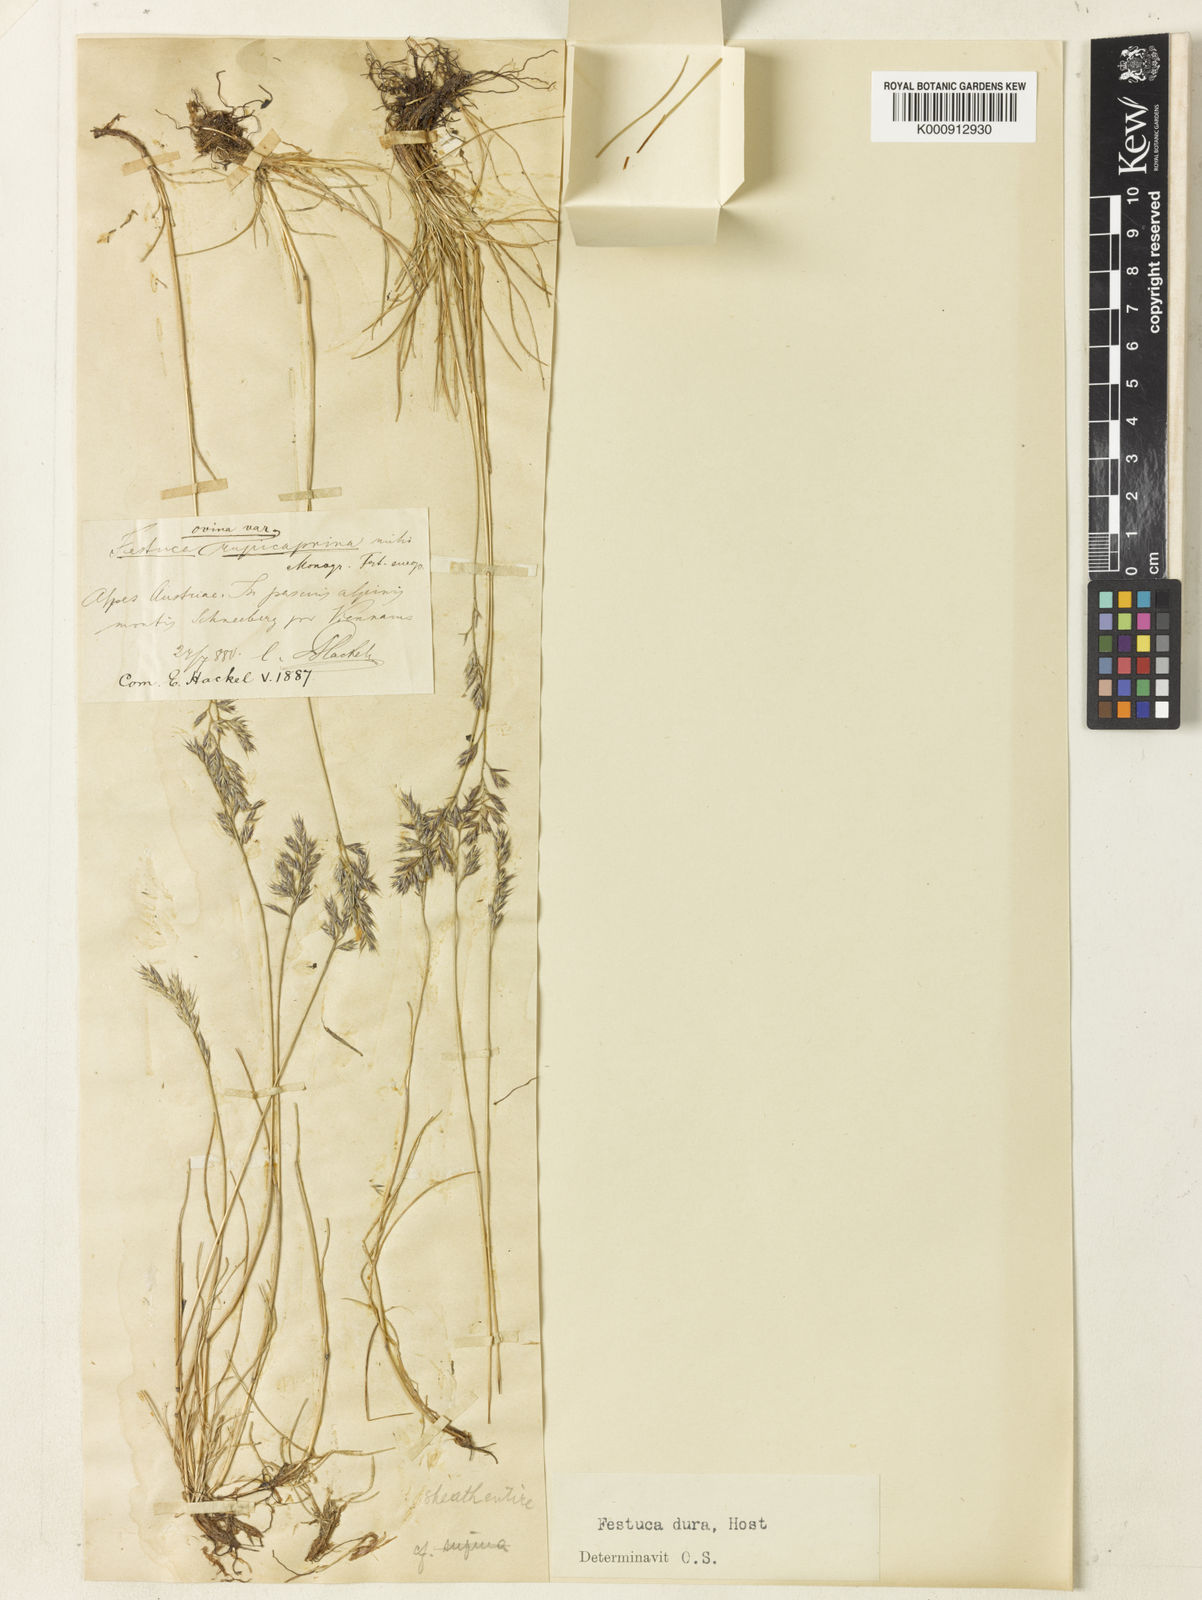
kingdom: Plantae
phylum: Tracheophyta
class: Liliopsida
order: Poales
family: Poaceae
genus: Festuca
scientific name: Festuca rupicaprina
